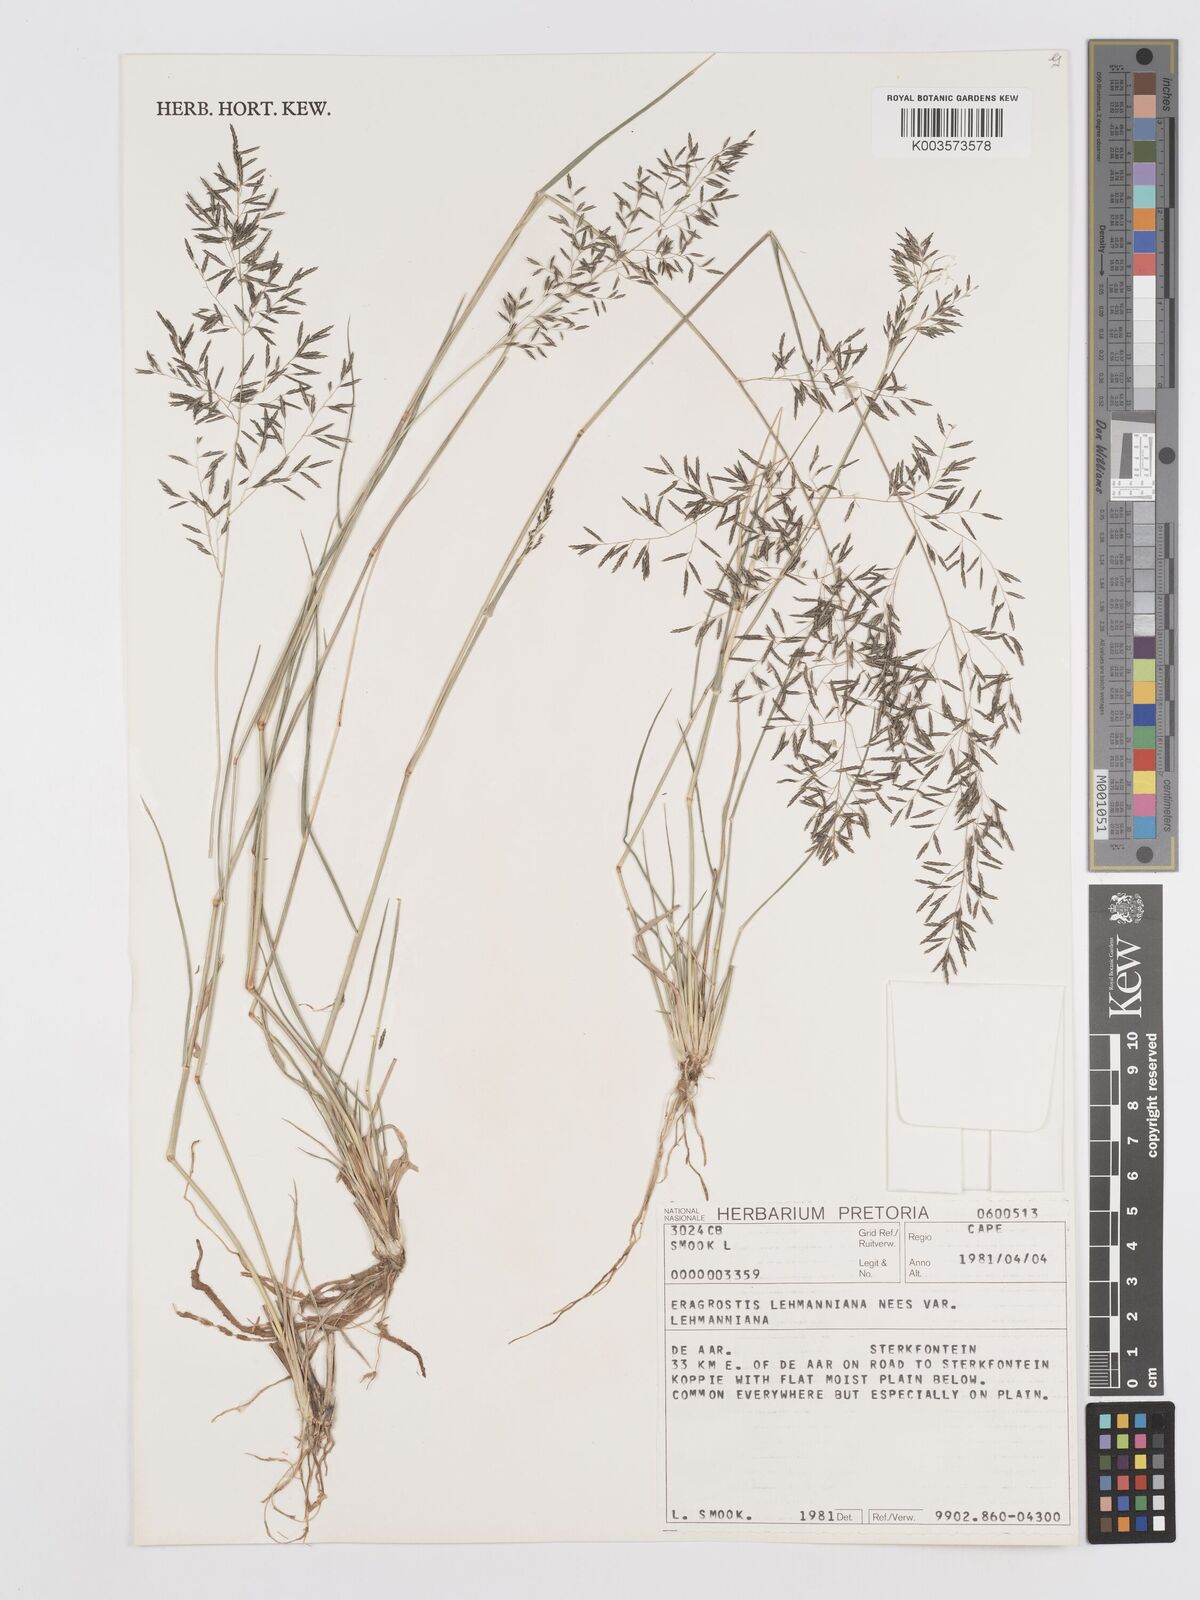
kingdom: Plantae
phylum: Tracheophyta
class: Liliopsida
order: Poales
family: Poaceae
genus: Eragrostis
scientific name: Eragrostis lehmanniana
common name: Lehmann lovegrass
